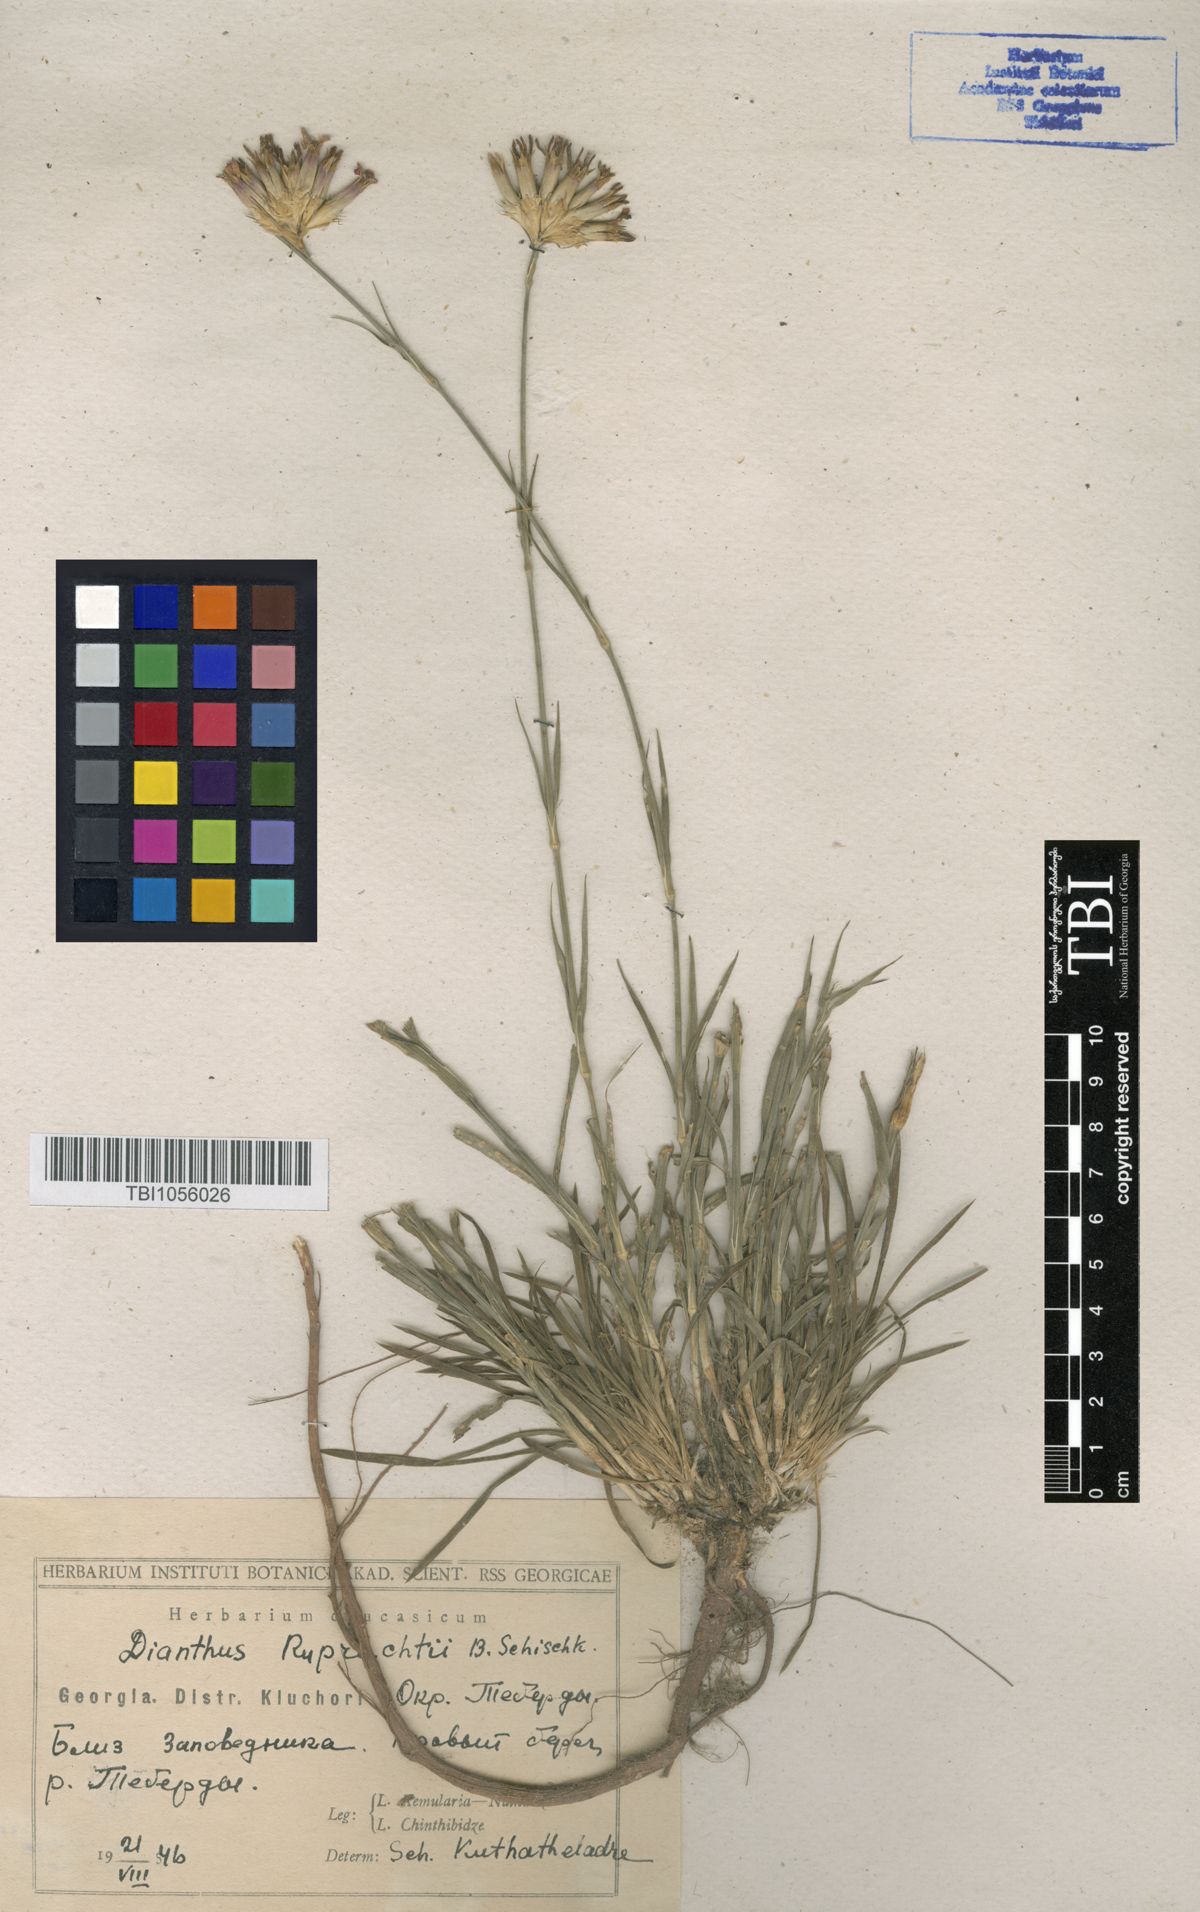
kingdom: Plantae
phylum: Tracheophyta
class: Magnoliopsida
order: Caryophyllales
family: Caryophyllaceae
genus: Dianthus
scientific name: Dianthus ruprechtii
